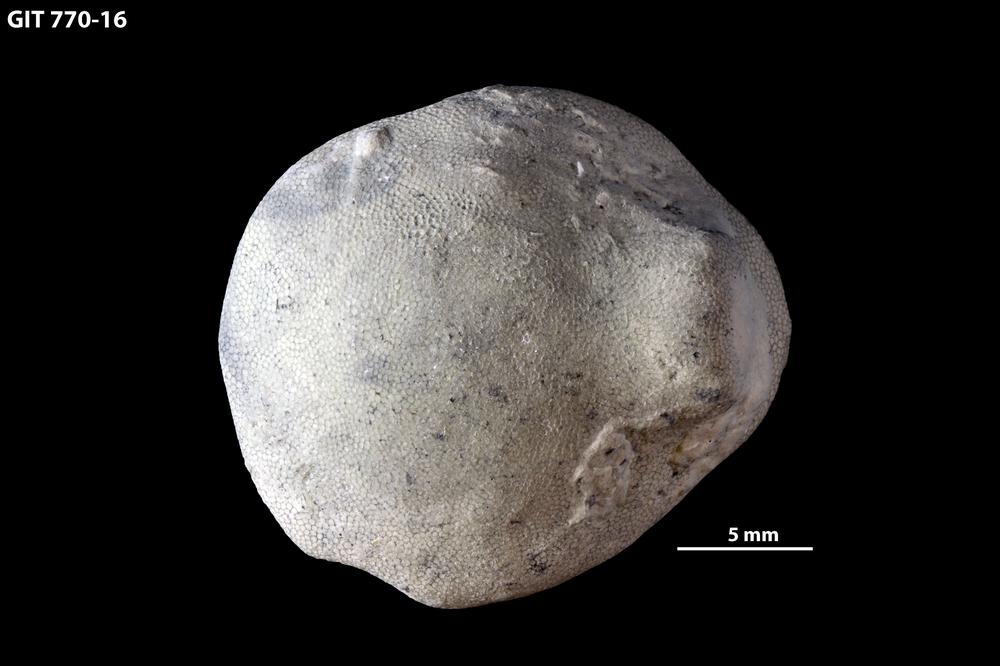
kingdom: Animalia
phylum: Bryozoa
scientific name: Bryozoa
